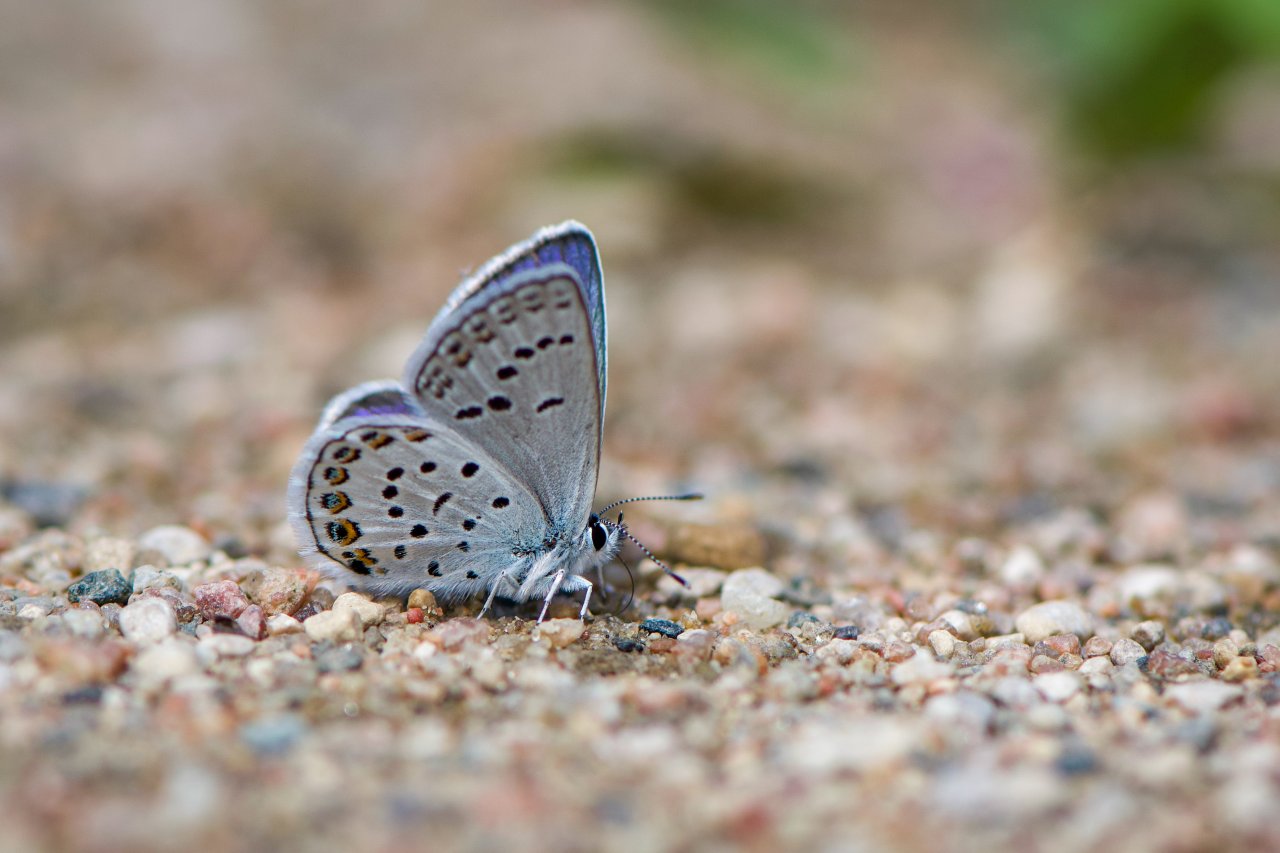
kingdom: Animalia
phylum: Arthropoda
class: Insecta
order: Lepidoptera
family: Lycaenidae
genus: Lycaeides
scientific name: Lycaeides idas
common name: Northern Blue
